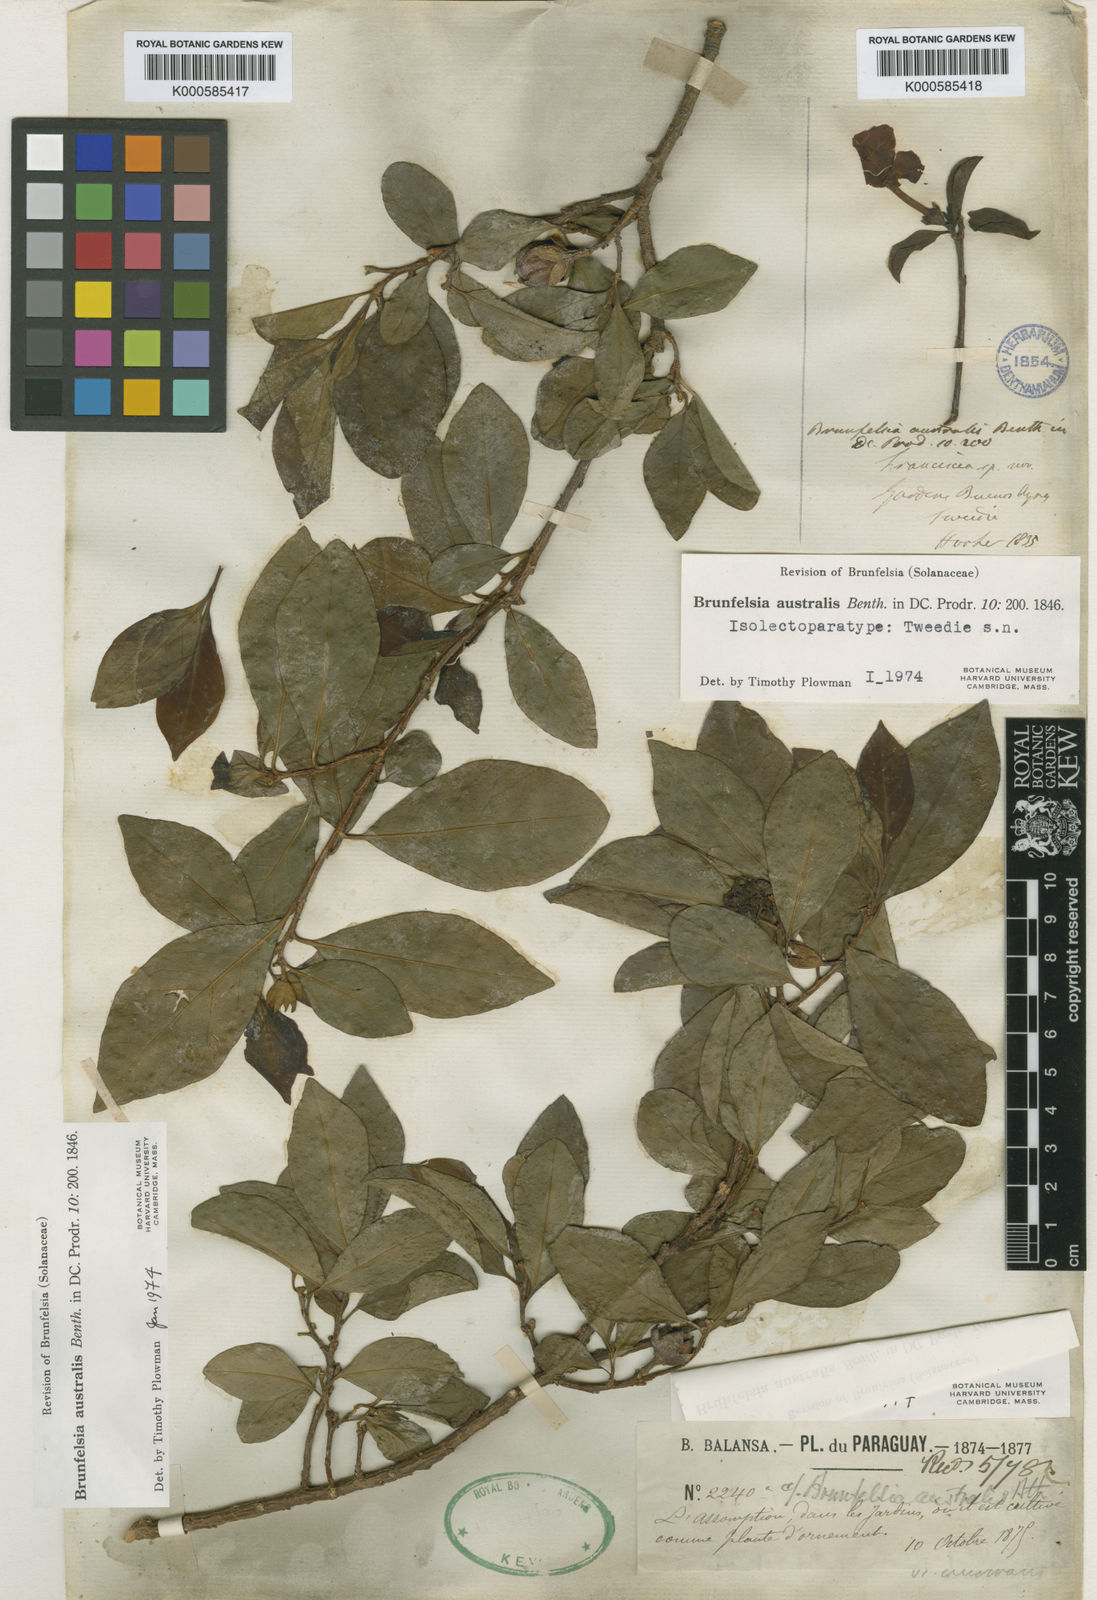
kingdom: Plantae
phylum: Tracheophyta
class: Magnoliopsida
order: Solanales
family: Solanaceae
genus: Brunfelsia
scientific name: Brunfelsia australis
